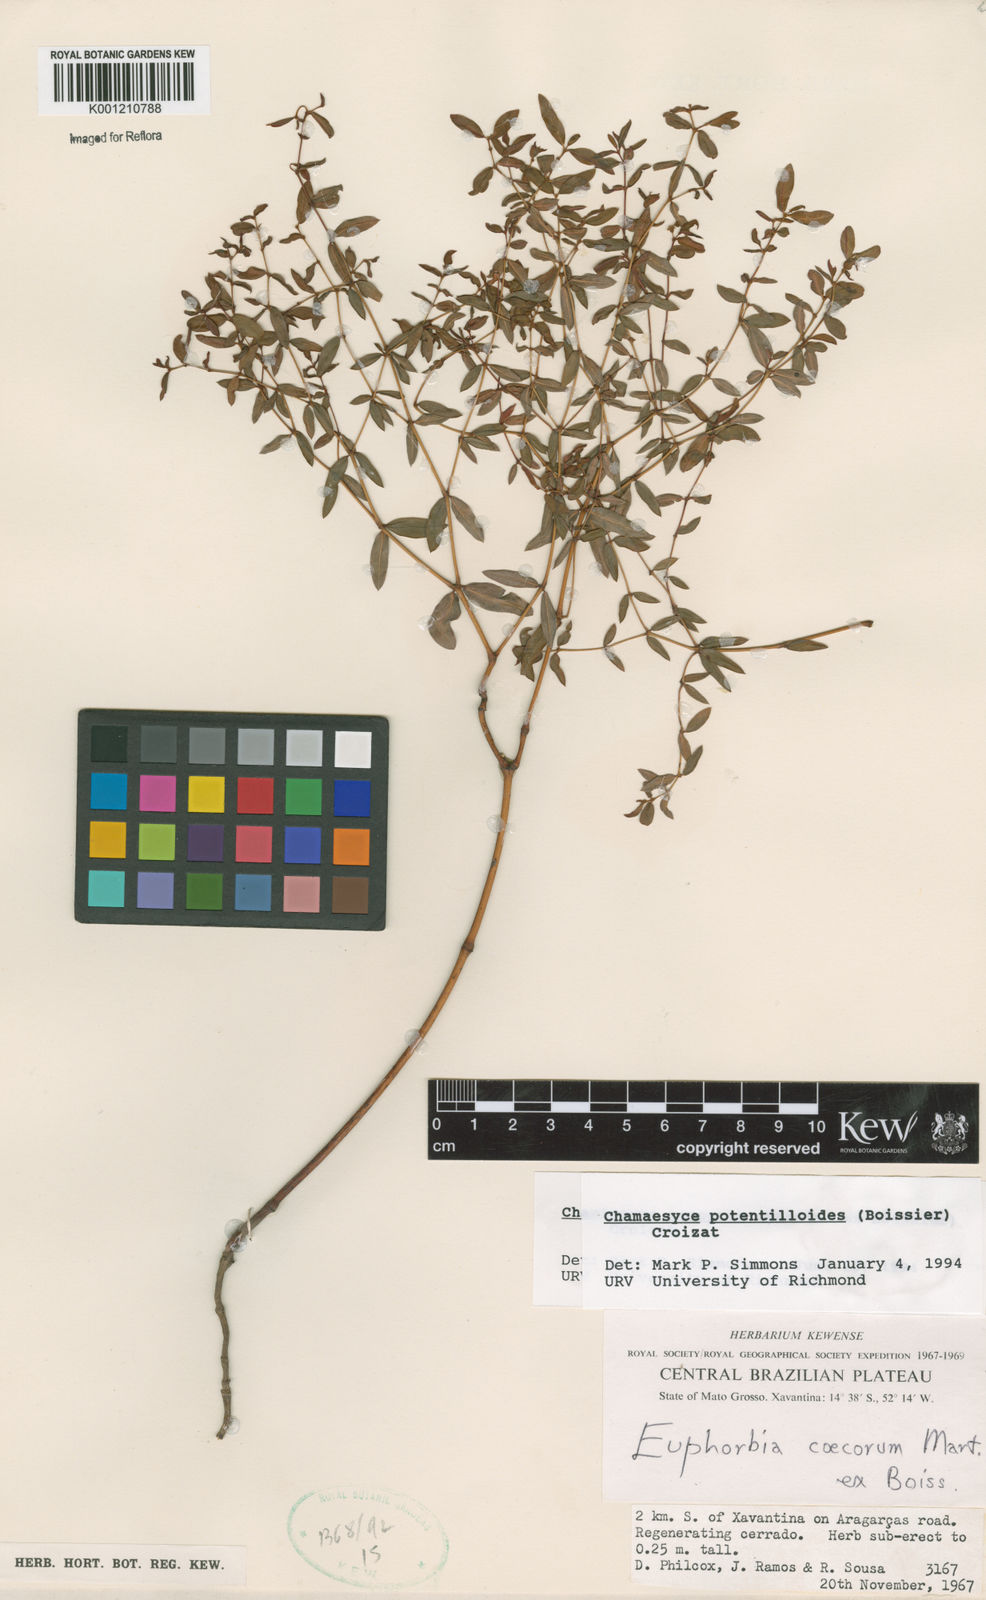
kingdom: Plantae
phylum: Tracheophyta
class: Magnoliopsida
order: Malpighiales
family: Euphorbiaceae
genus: Euphorbia
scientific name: Euphorbia potentilloides
